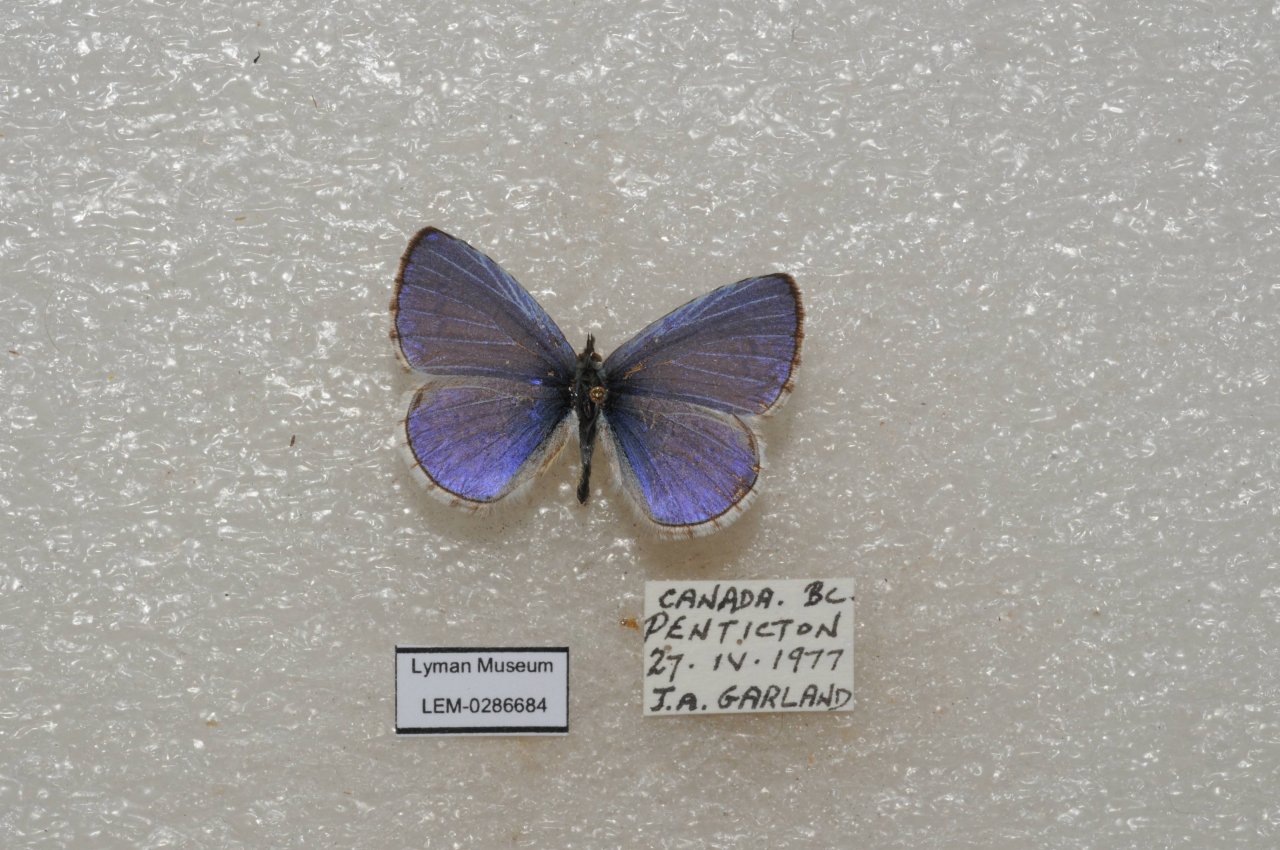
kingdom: Animalia
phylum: Arthropoda
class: Insecta
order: Lepidoptera
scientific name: Lepidoptera
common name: Butterflies
